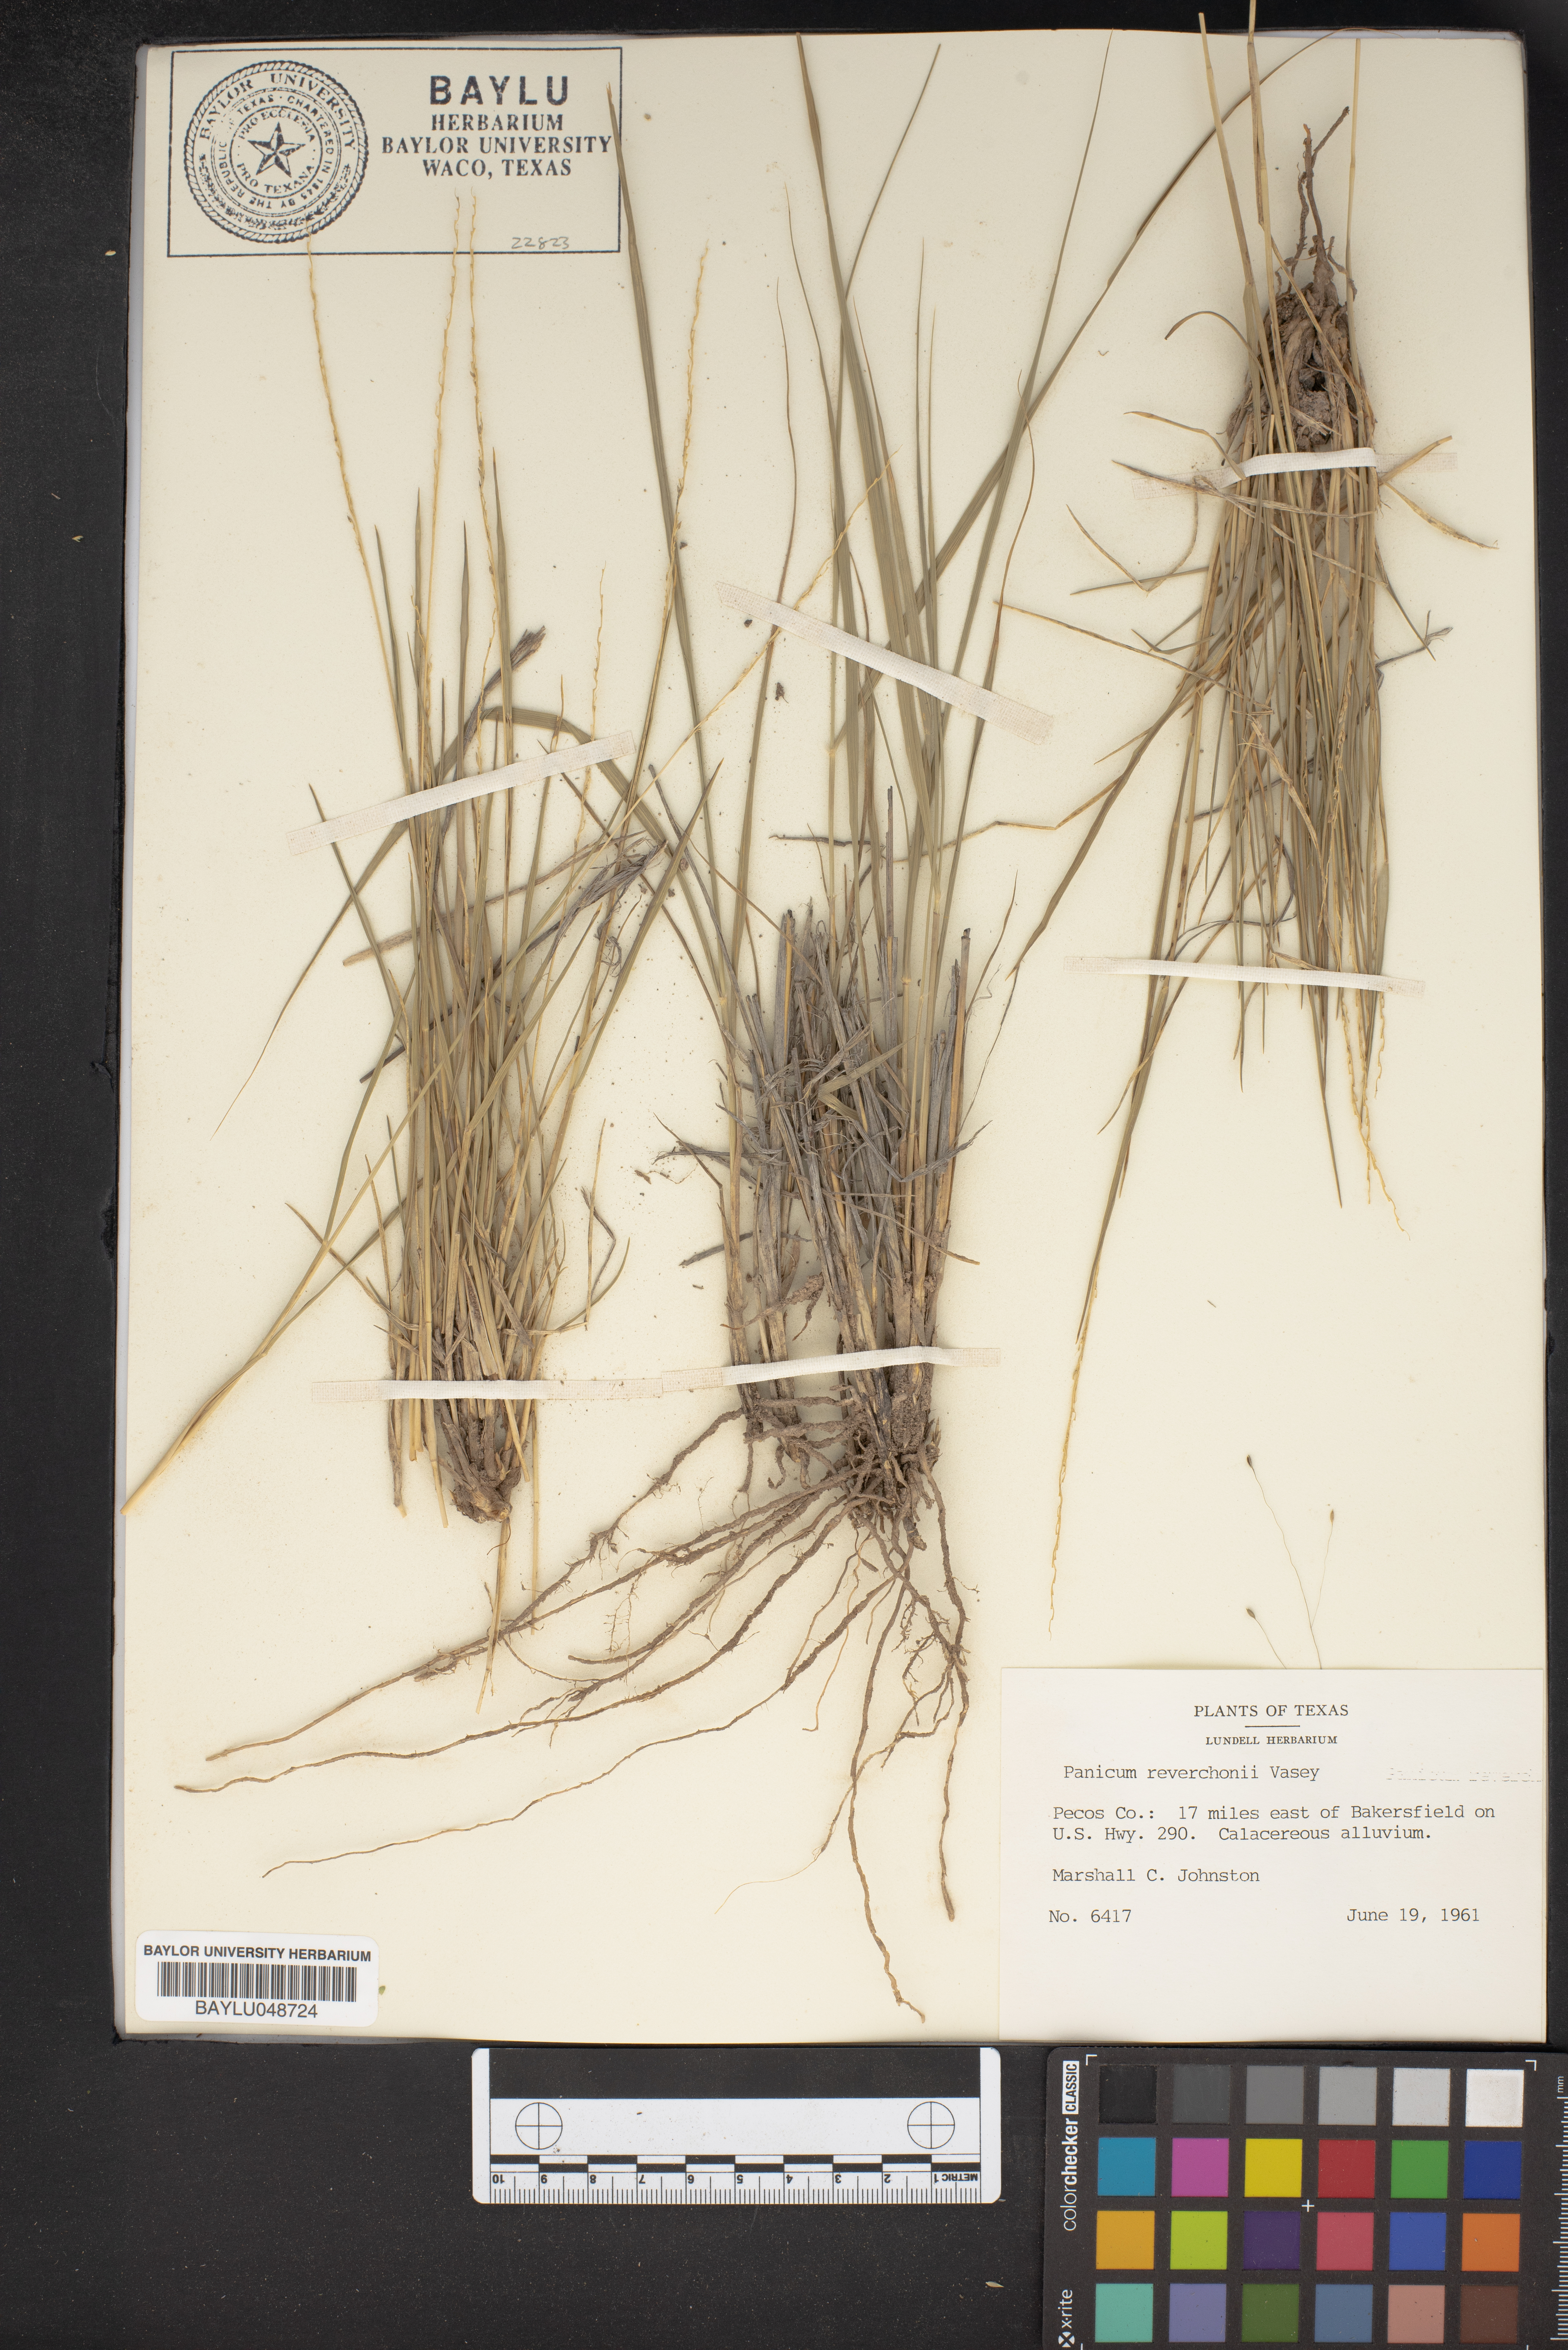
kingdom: Plantae
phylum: Tracheophyta
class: Liliopsida
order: Poales
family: Poaceae
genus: Setaria
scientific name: Setaria reverchonii
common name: Reverchon's bristle grass
